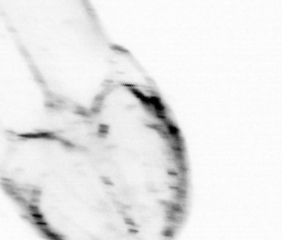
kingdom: Animalia
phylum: Chaetognatha
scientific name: Chaetognatha
